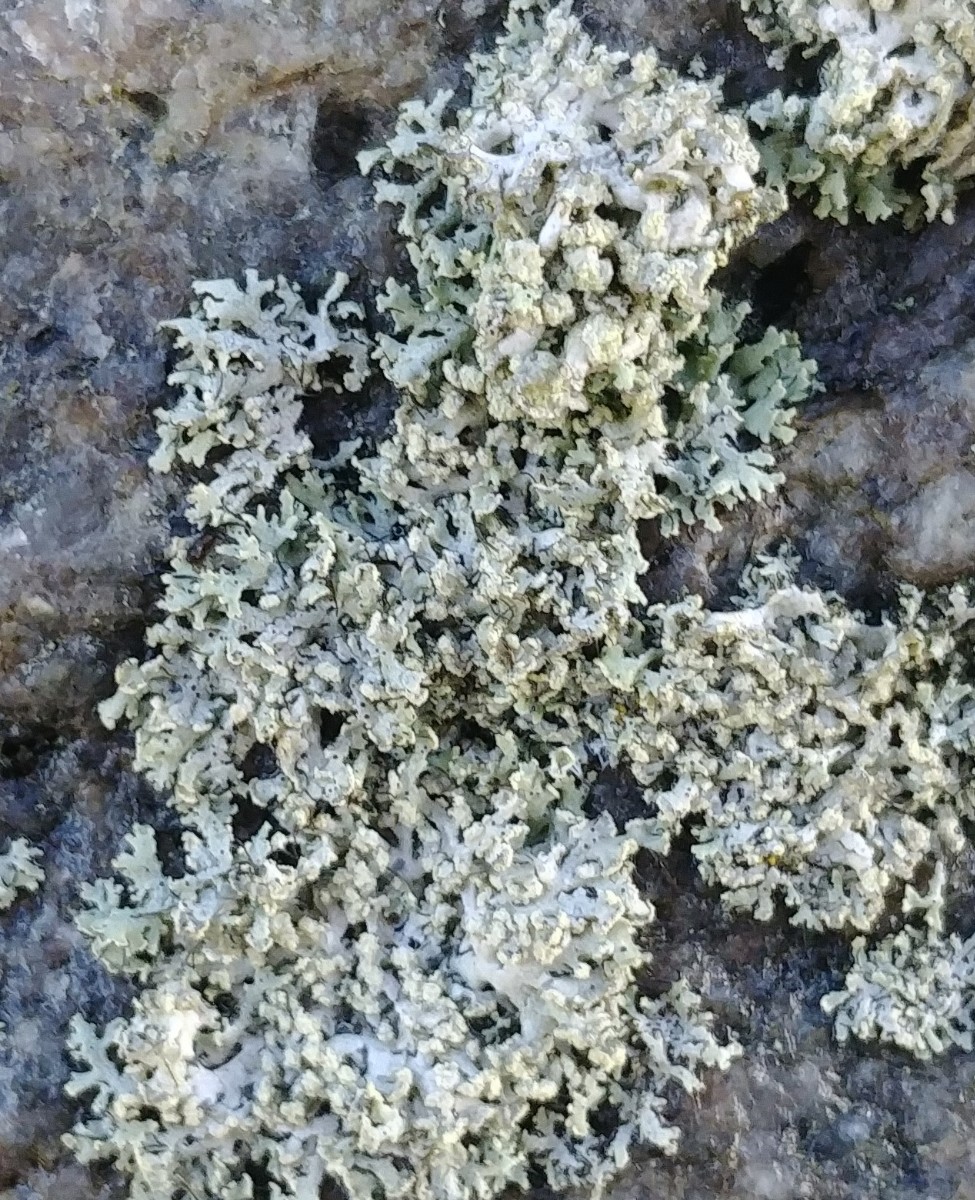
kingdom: Fungi
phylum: Ascomycota
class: Lecanoromycetes
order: Caliciales
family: Physciaceae
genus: Physcia
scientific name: Physcia tenella
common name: spæd rosetlav
